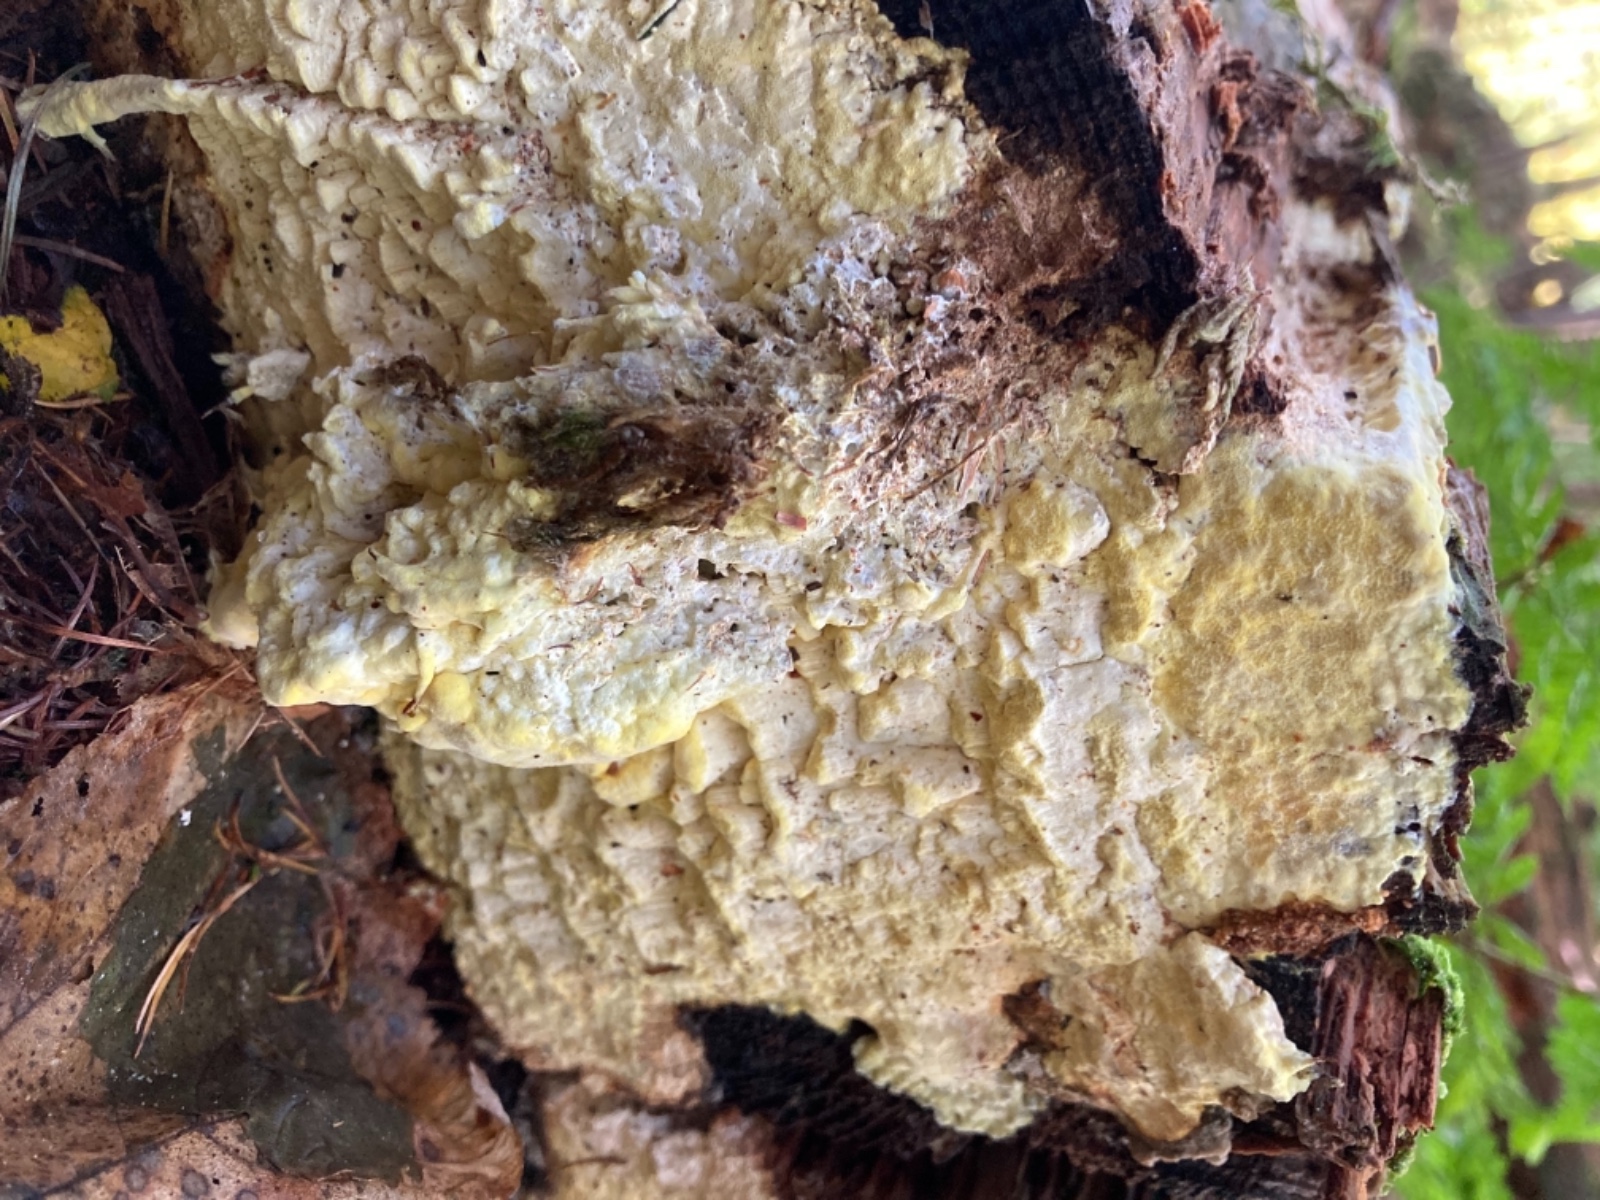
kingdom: Fungi
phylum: Basidiomycota
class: Agaricomycetes
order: Polyporales
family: Fomitopsidaceae
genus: Daedalea
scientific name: Daedalea xantha
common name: gul sejporesvamp
